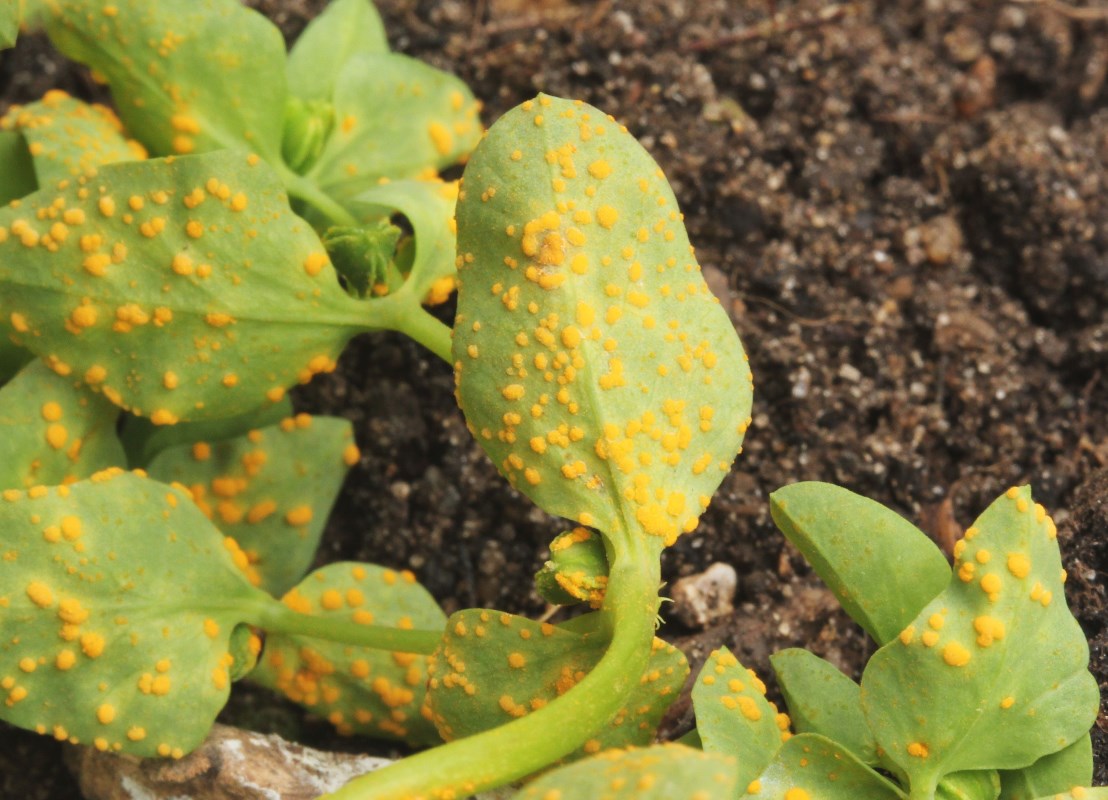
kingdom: Fungi
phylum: Basidiomycota
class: Pucciniomycetes
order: Pucciniales
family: Melampsoraceae
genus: Melampsora
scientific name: Melampsora euphorbiae
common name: vortemælk-skorperust
